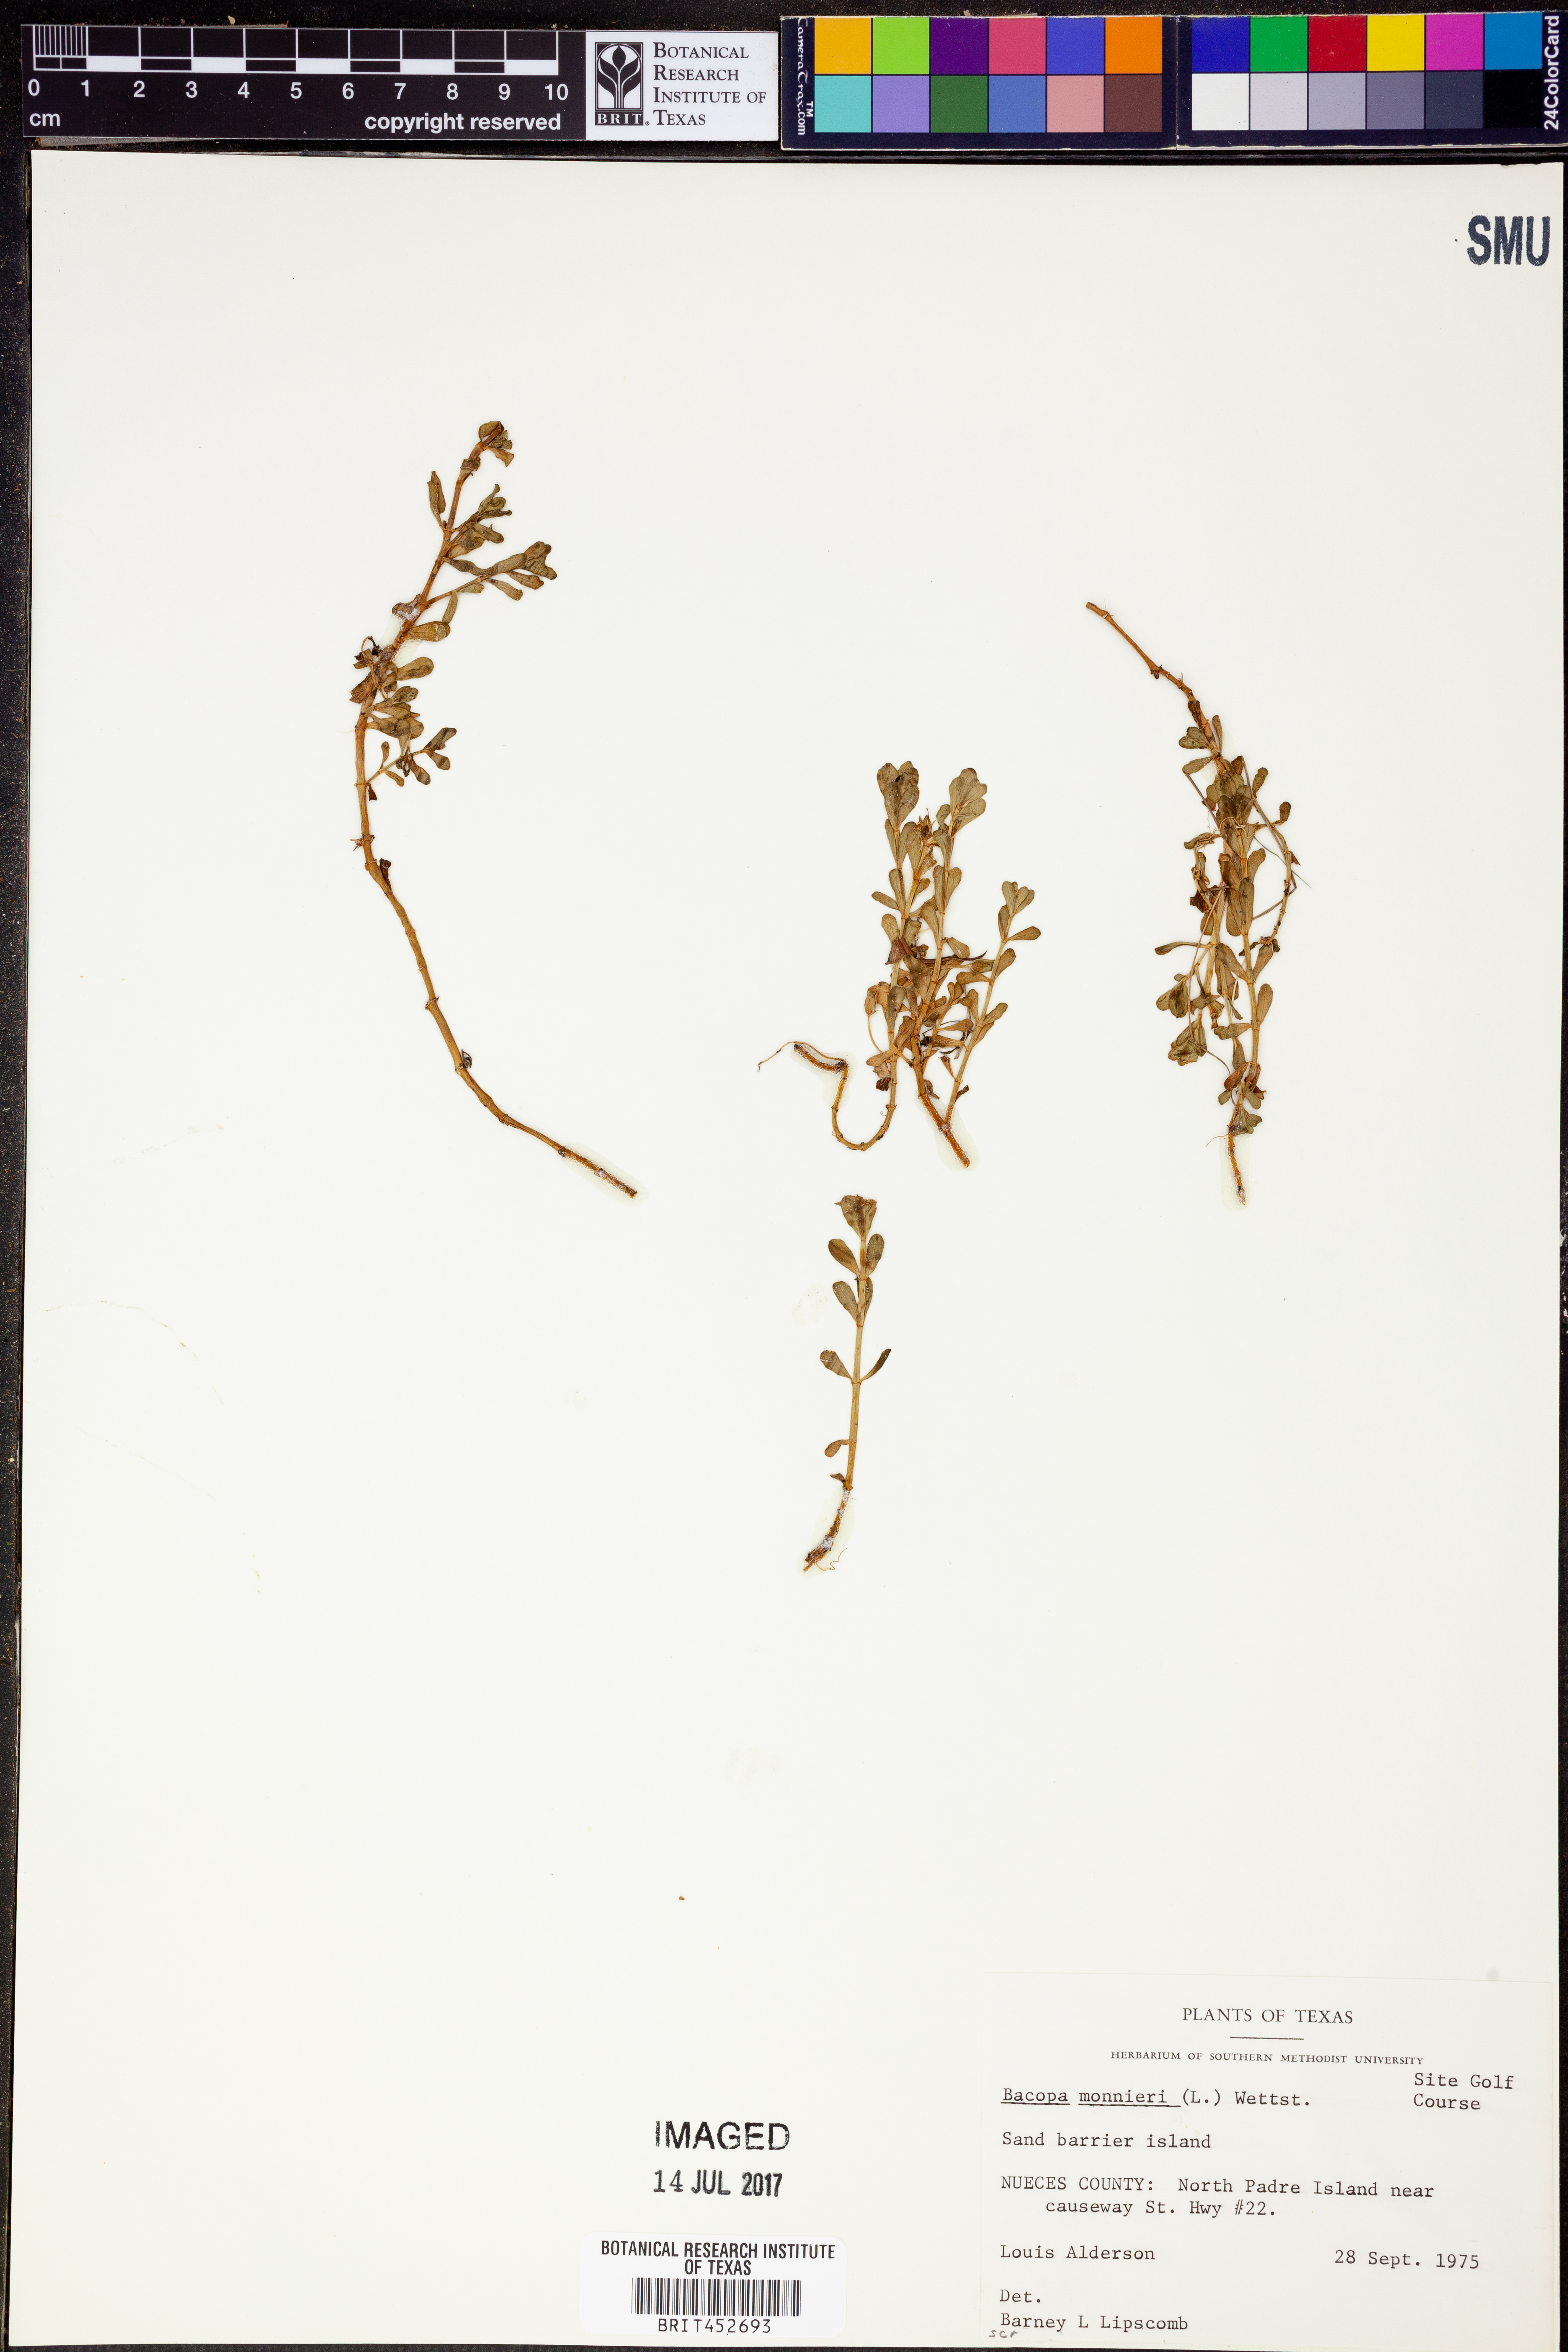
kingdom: Plantae
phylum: Tracheophyta
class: Magnoliopsida
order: Lamiales
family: Plantaginaceae
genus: Bacopa
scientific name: Bacopa monnieri
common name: Indian-pennywort
